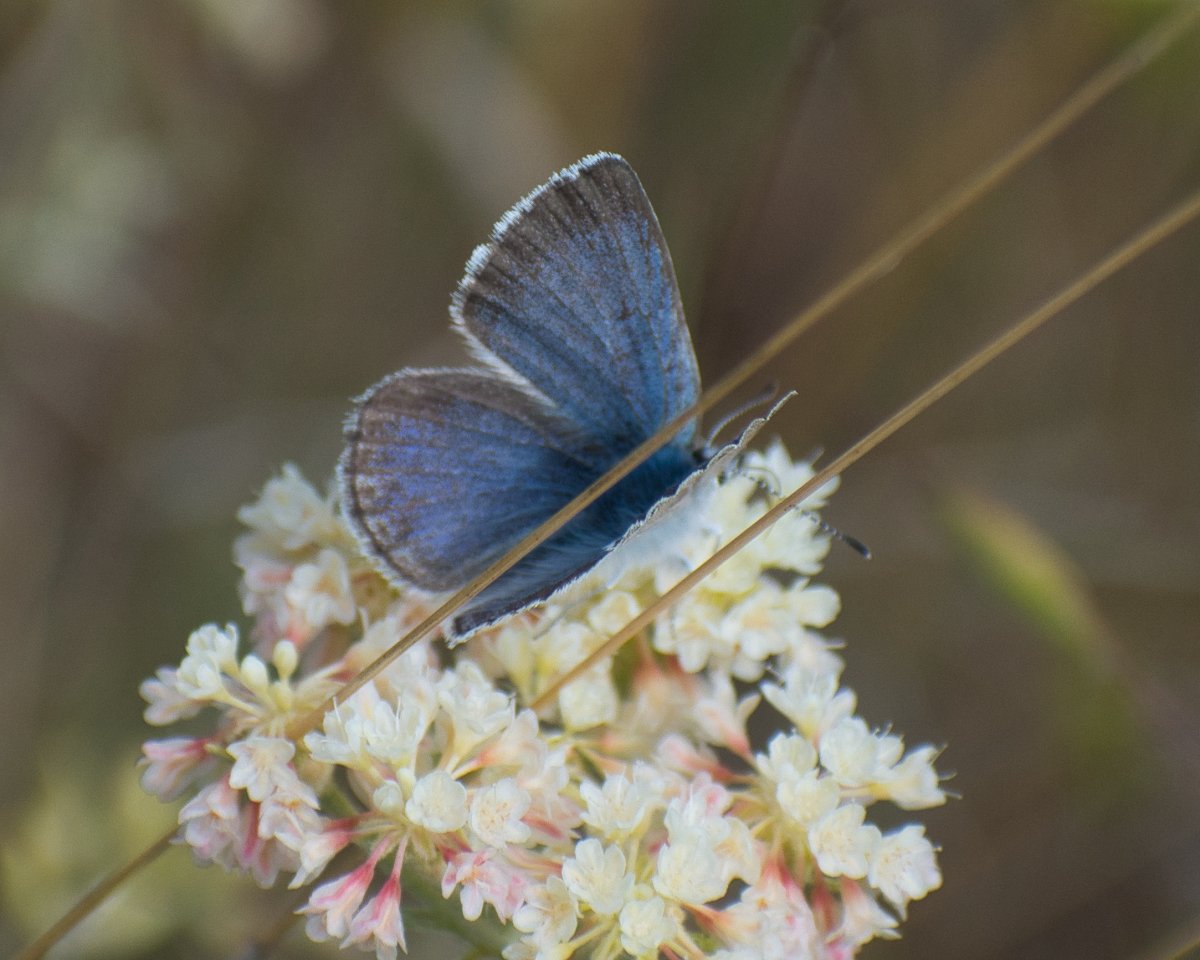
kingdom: Animalia
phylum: Arthropoda
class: Insecta
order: Lepidoptera
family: Lycaenidae
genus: Icaricia
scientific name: Icaricia icarioides
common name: Boisduval's Blue
